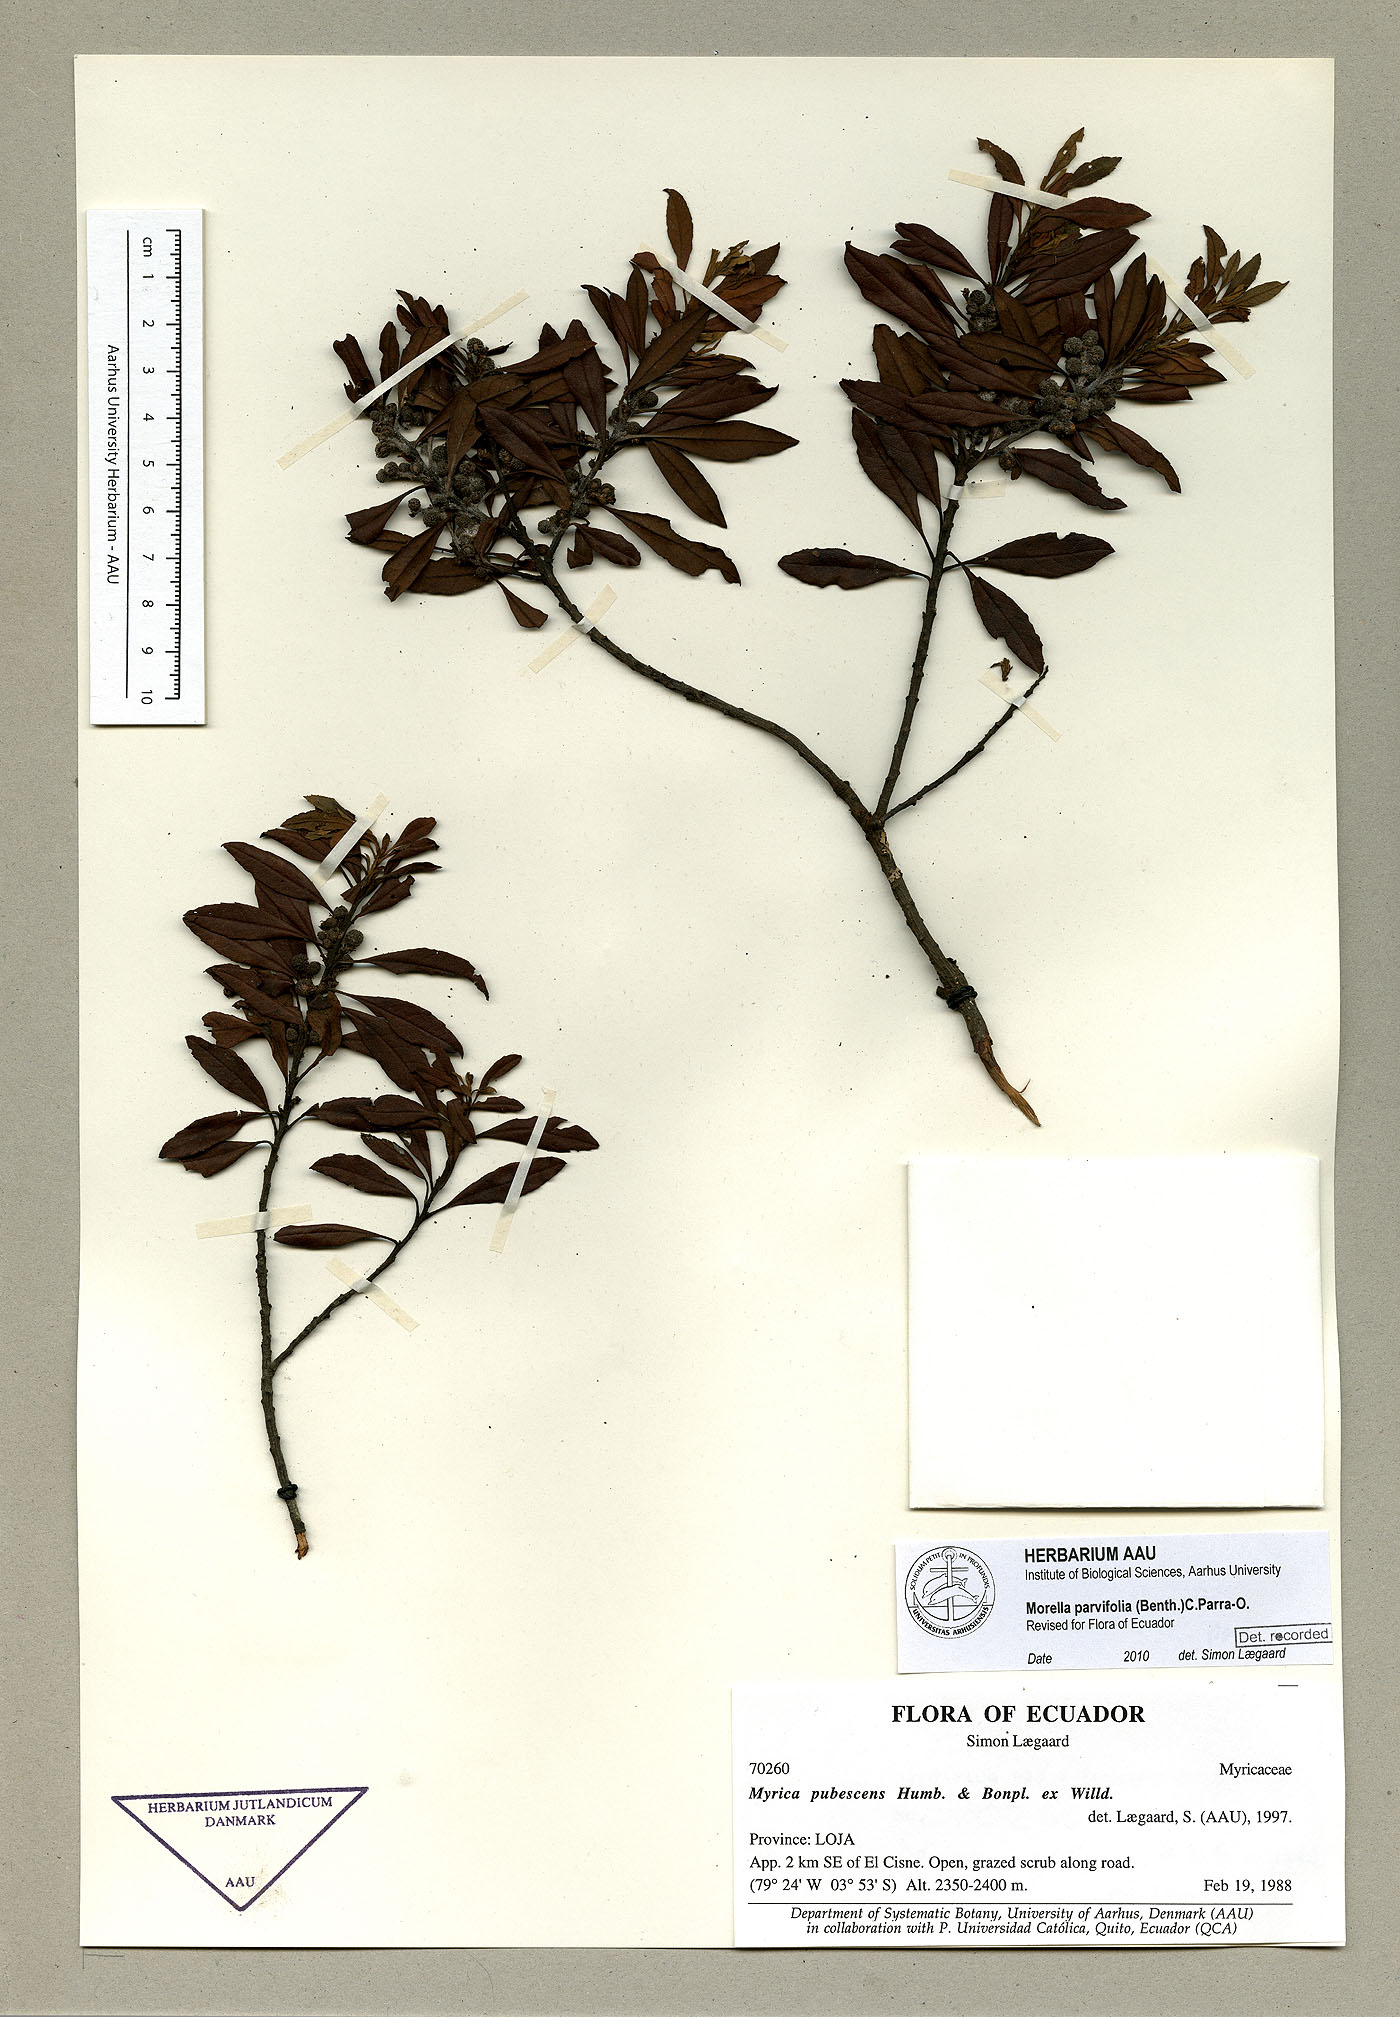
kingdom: Plantae
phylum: Tracheophyta
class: Magnoliopsida
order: Fagales
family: Myricaceae
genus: Morella
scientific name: Morella parvifolia
